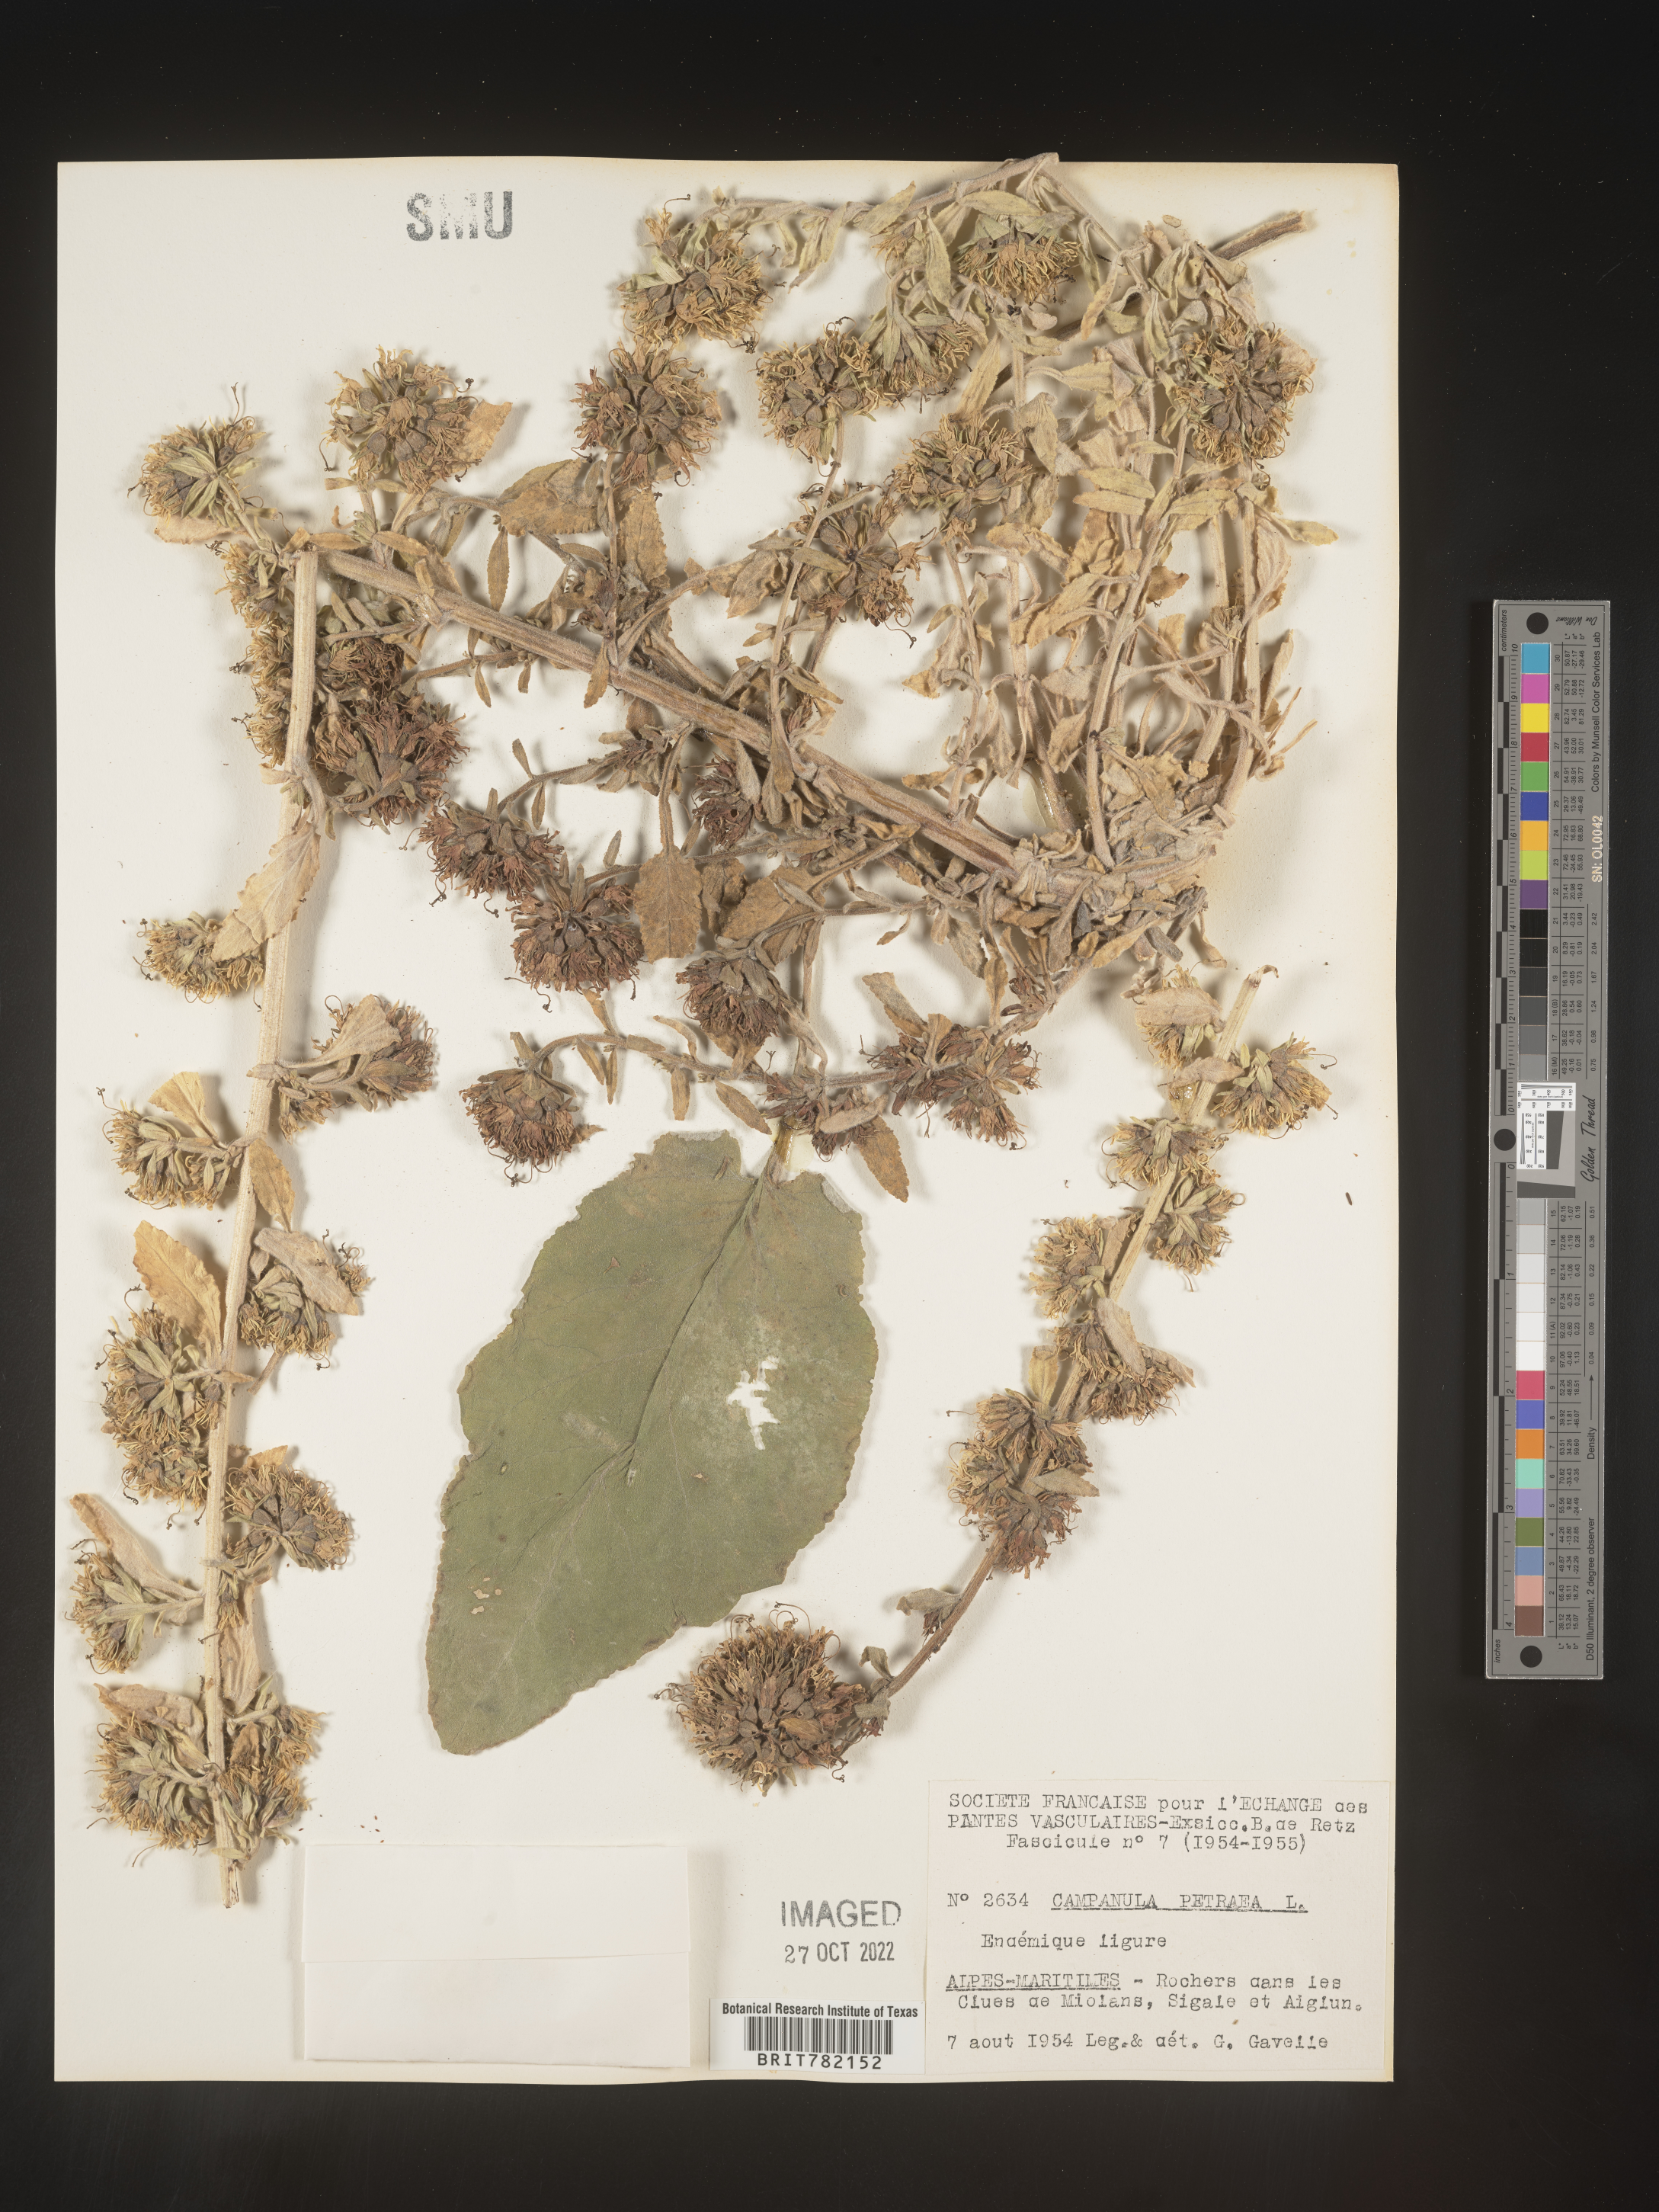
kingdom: Plantae
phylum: Tracheophyta
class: Magnoliopsida
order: Asterales
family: Campanulaceae
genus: Campanula
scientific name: Campanula
